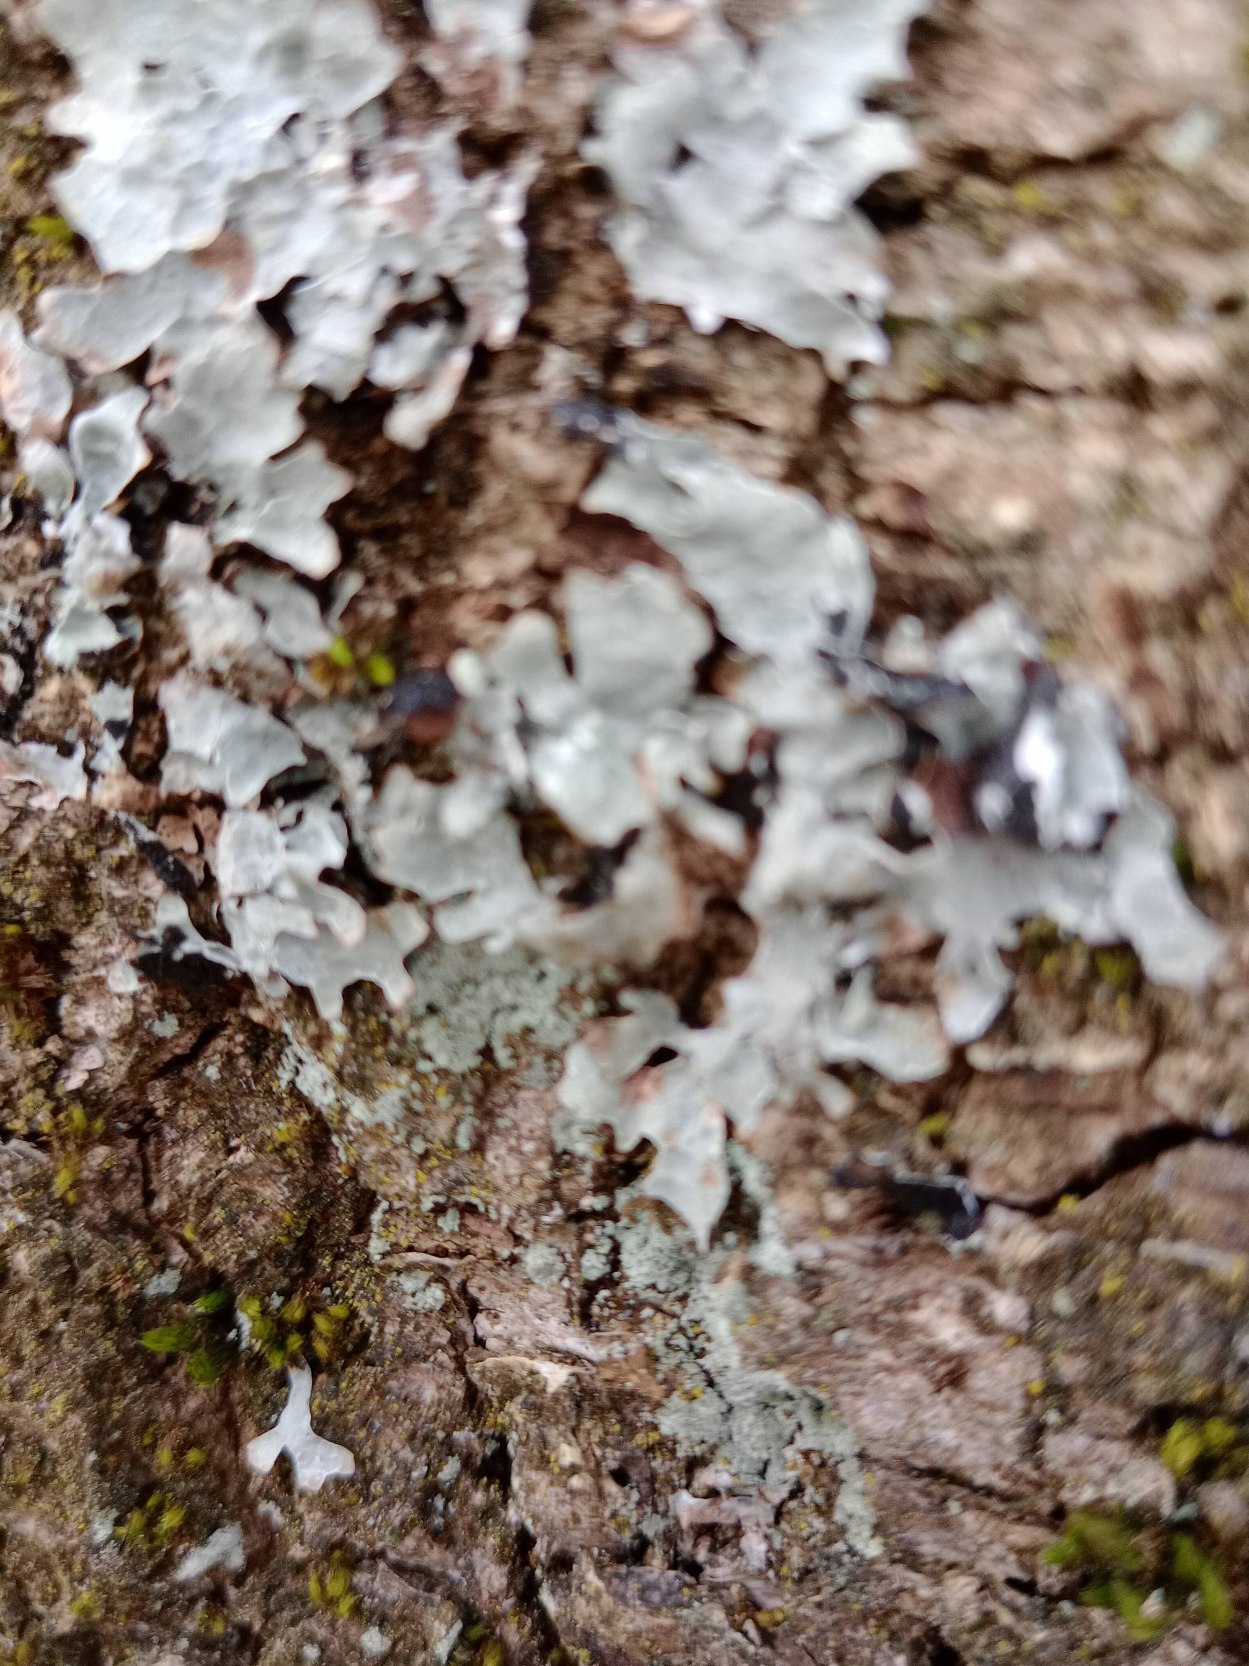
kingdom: Fungi
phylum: Ascomycota
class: Lecanoromycetes
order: Lecanorales
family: Parmeliaceae
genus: Parmelia
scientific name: Parmelia sulcata
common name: Rynket skållav
